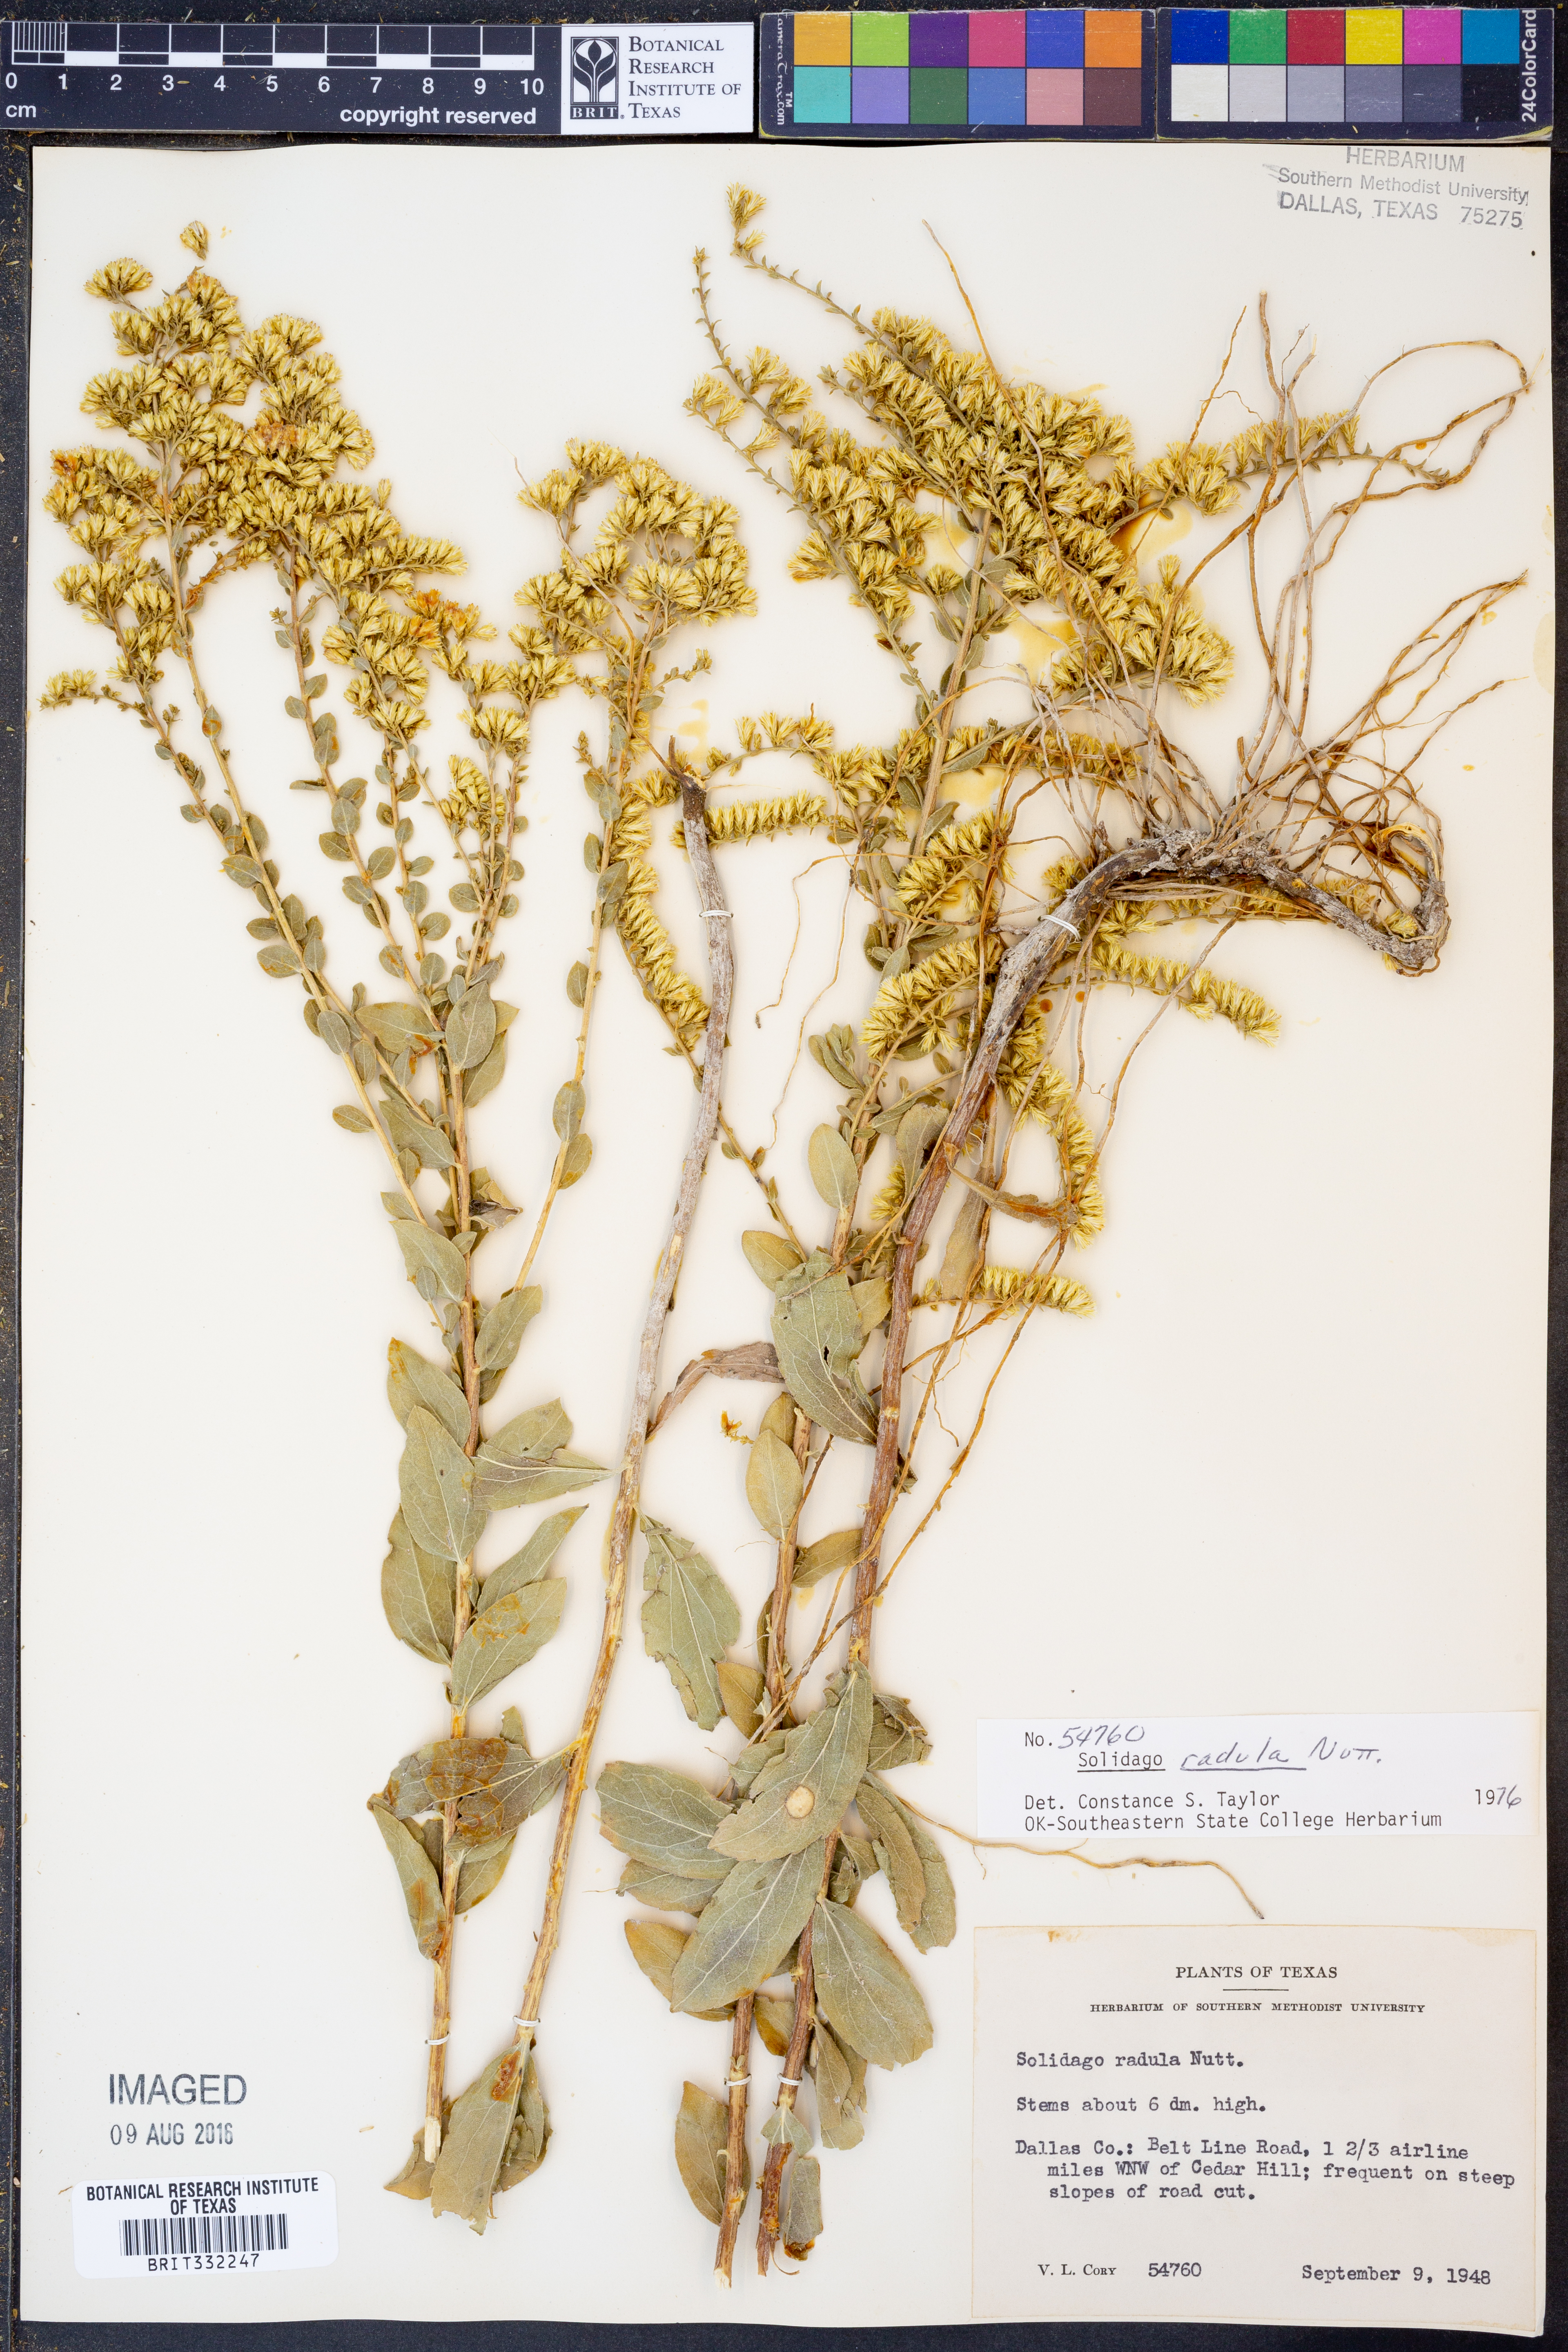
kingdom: Plantae
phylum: Tracheophyta
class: Magnoliopsida
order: Asterales
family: Asteraceae
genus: Solidago
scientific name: Solidago radula
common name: Western rough goldenrod
